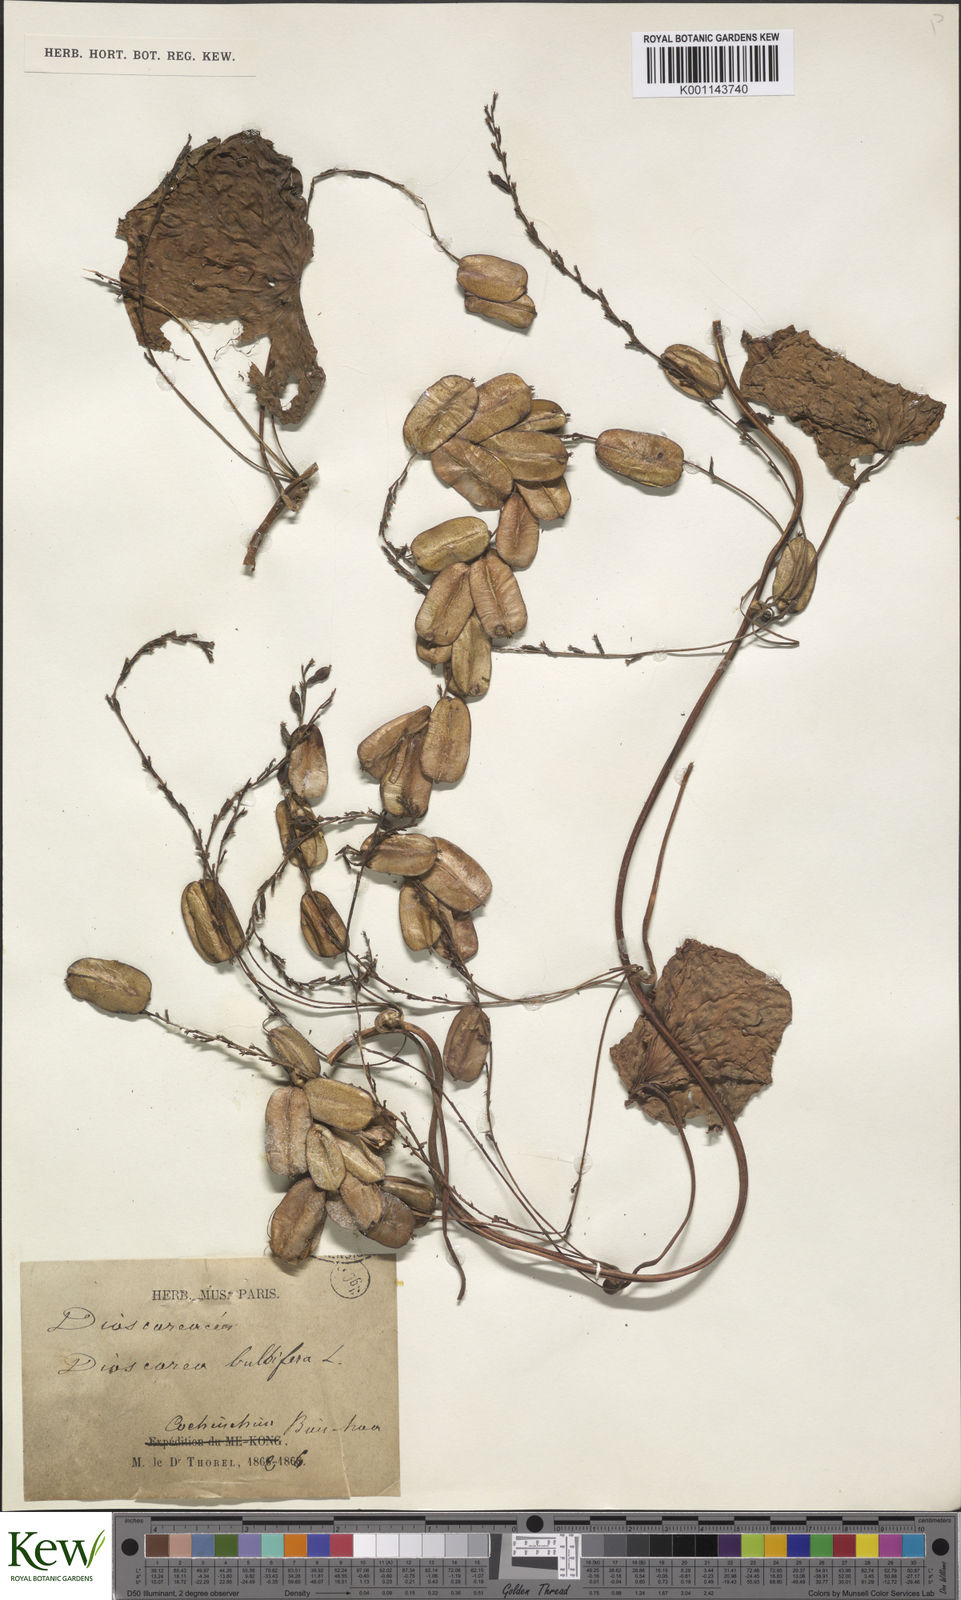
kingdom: Plantae
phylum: Tracheophyta
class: Liliopsida
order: Dioscoreales
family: Dioscoreaceae
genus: Dioscorea
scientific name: Dioscorea bulbifera
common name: Air yam
